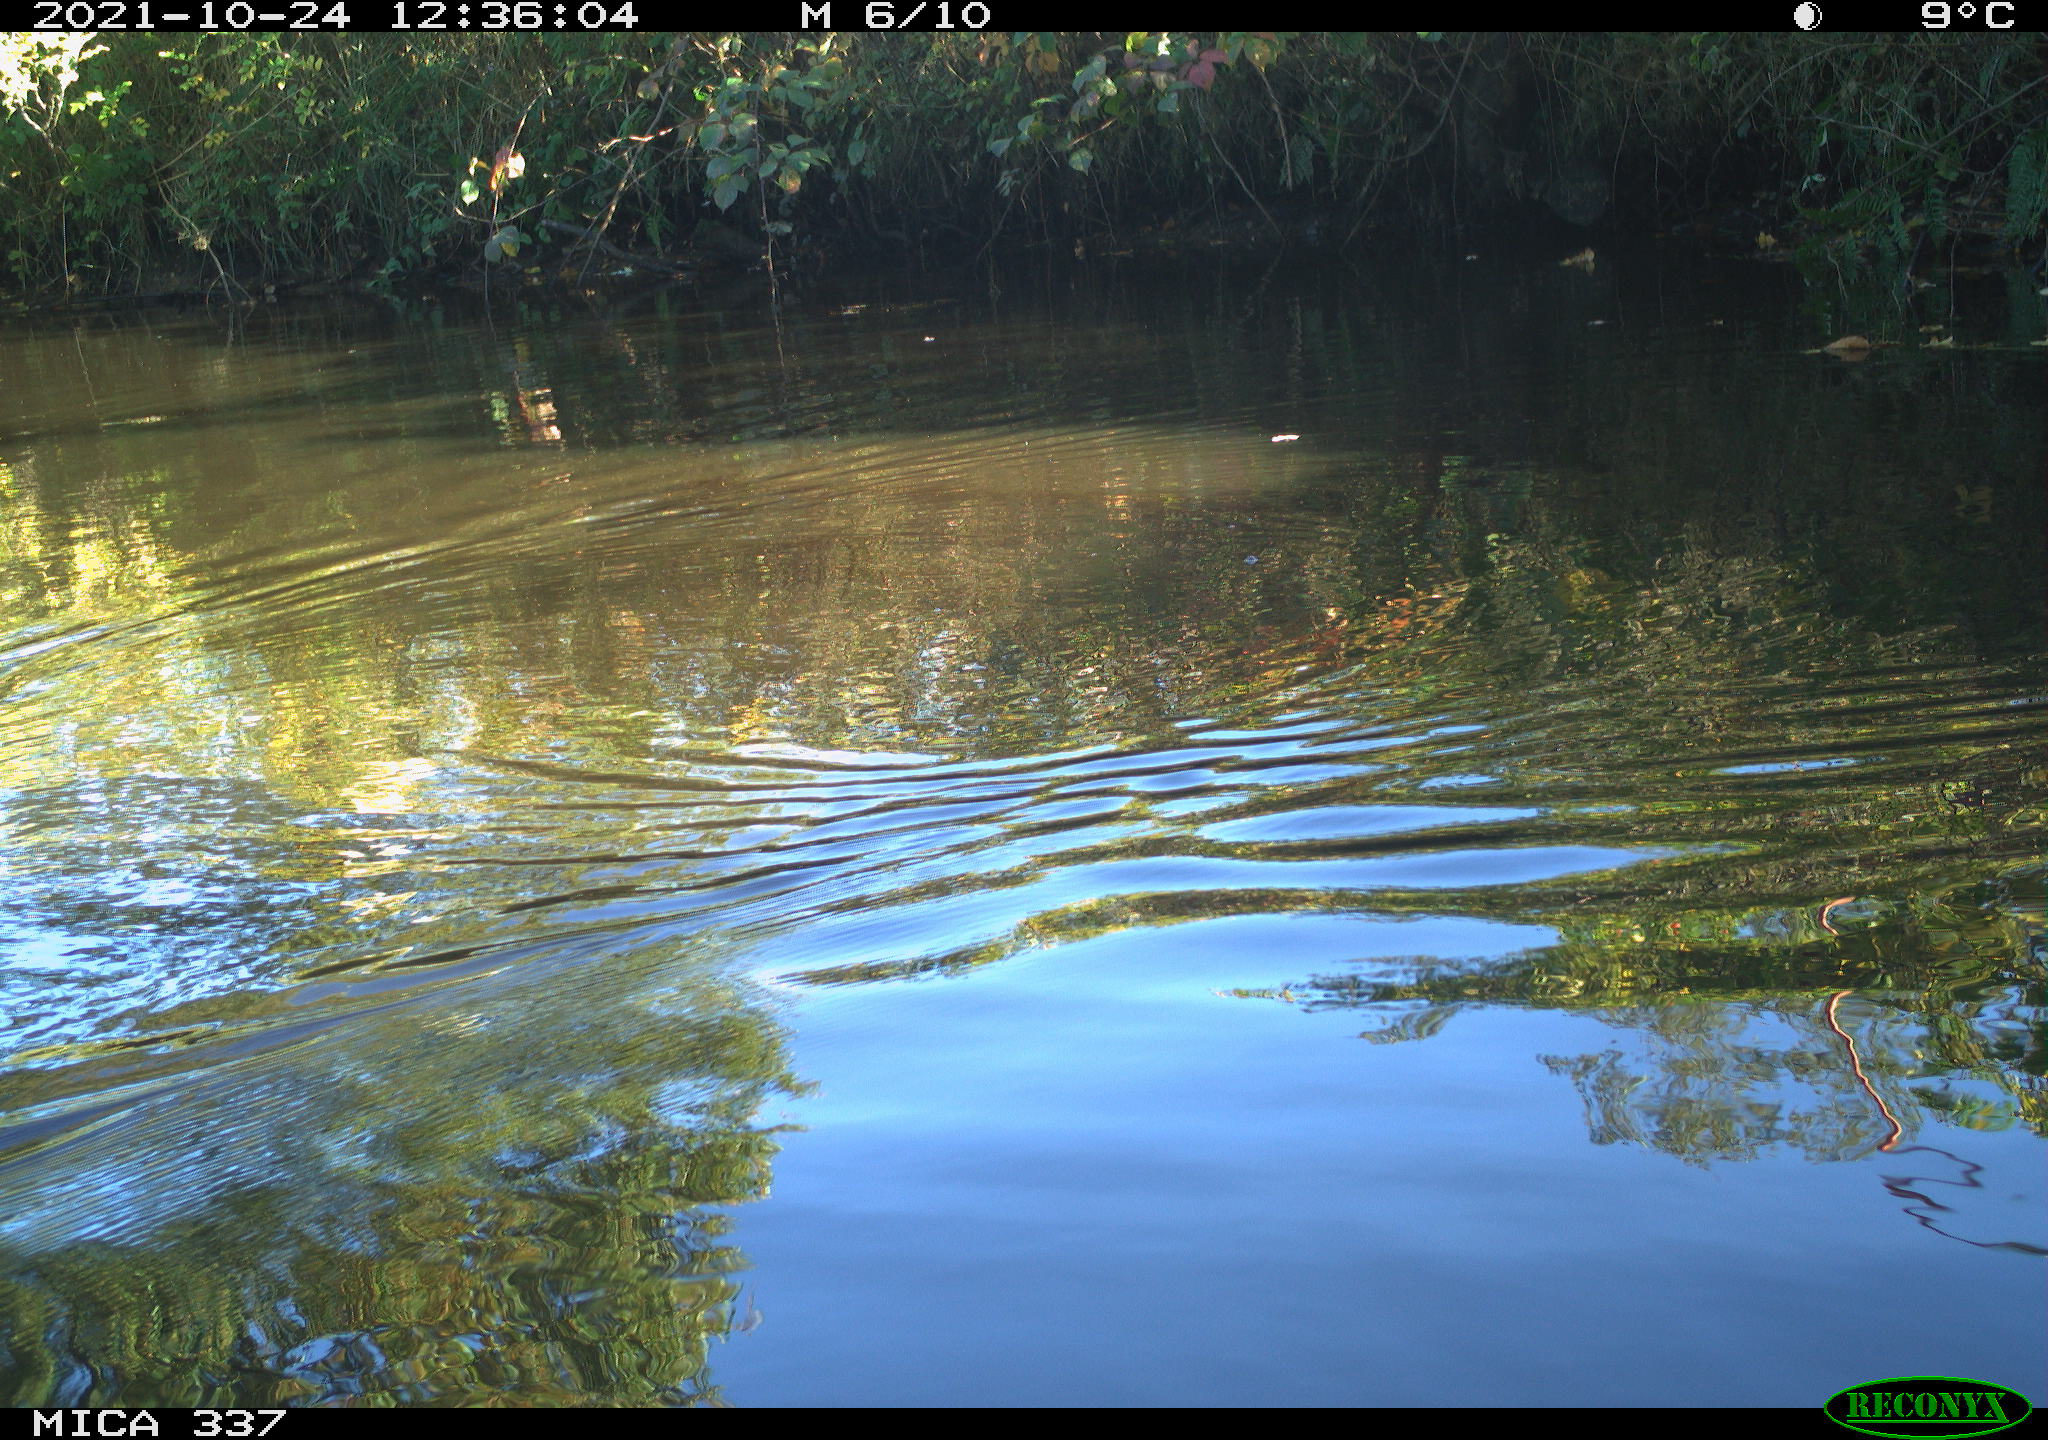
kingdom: Animalia
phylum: Chordata
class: Aves
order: Anseriformes
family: Anatidae
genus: Anas
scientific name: Anas platyrhynchos
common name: Mallard
